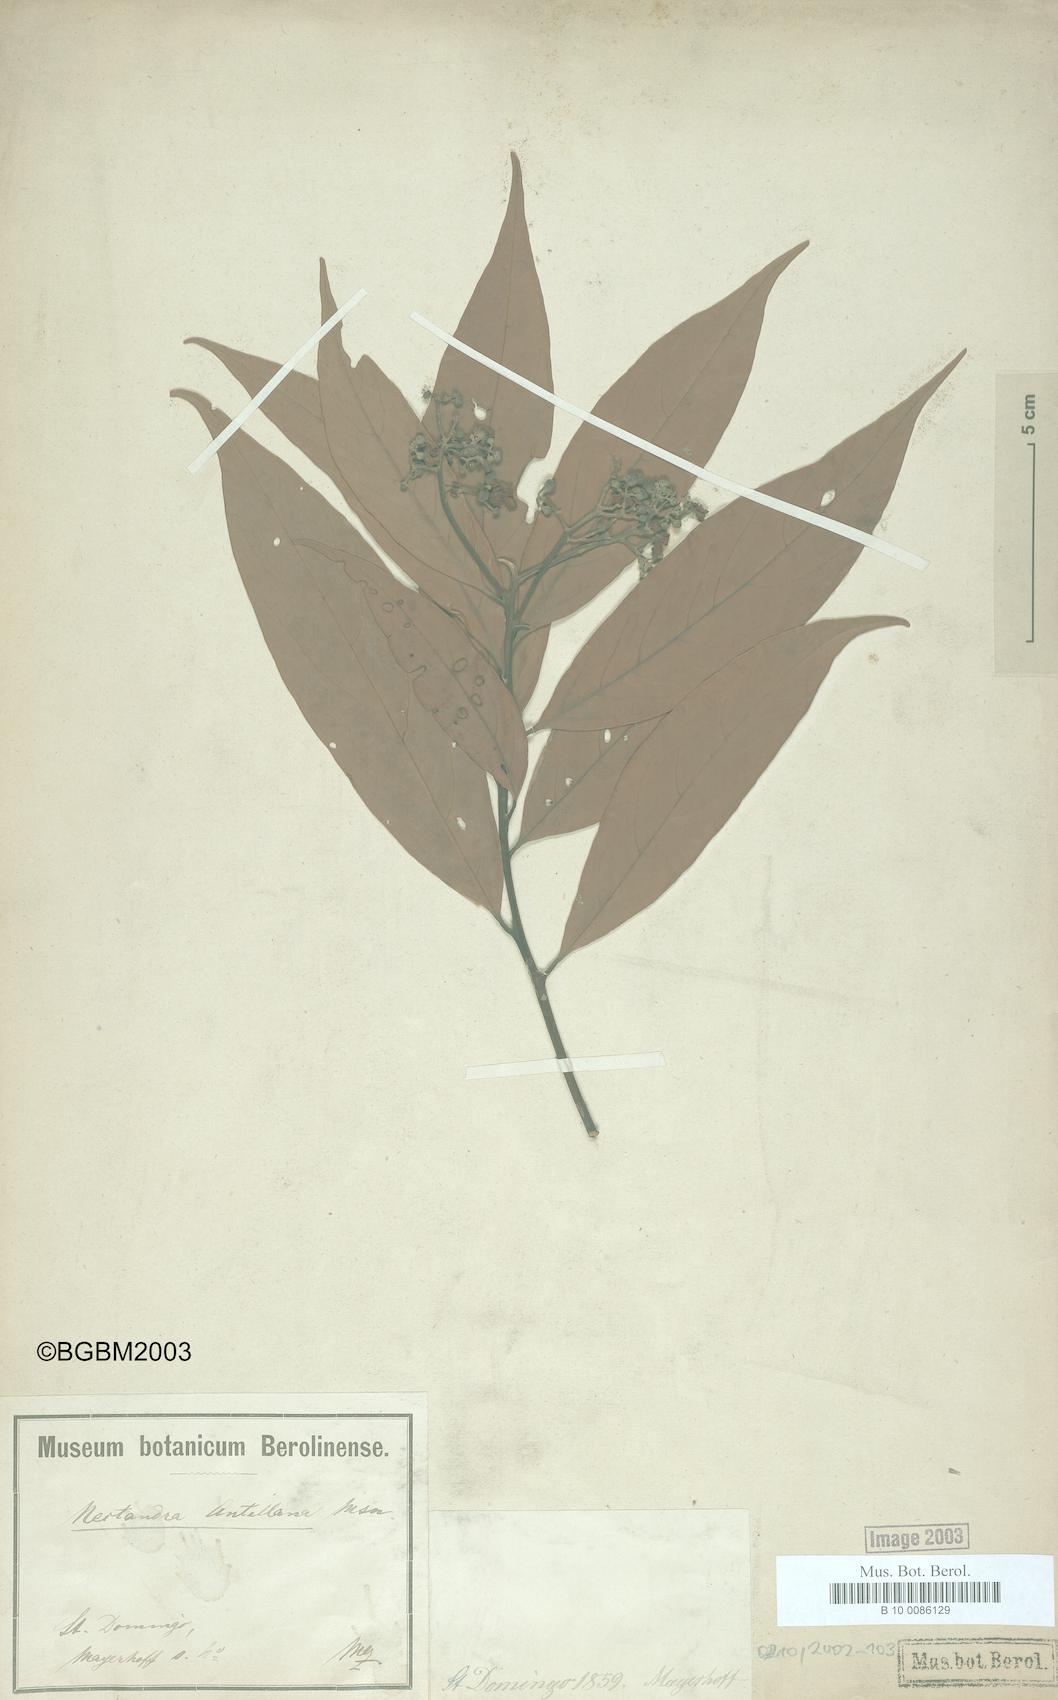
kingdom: Plantae
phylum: Tracheophyta
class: Magnoliopsida
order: Laurales
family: Lauraceae
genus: Nectandra
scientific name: Nectandra hihua
